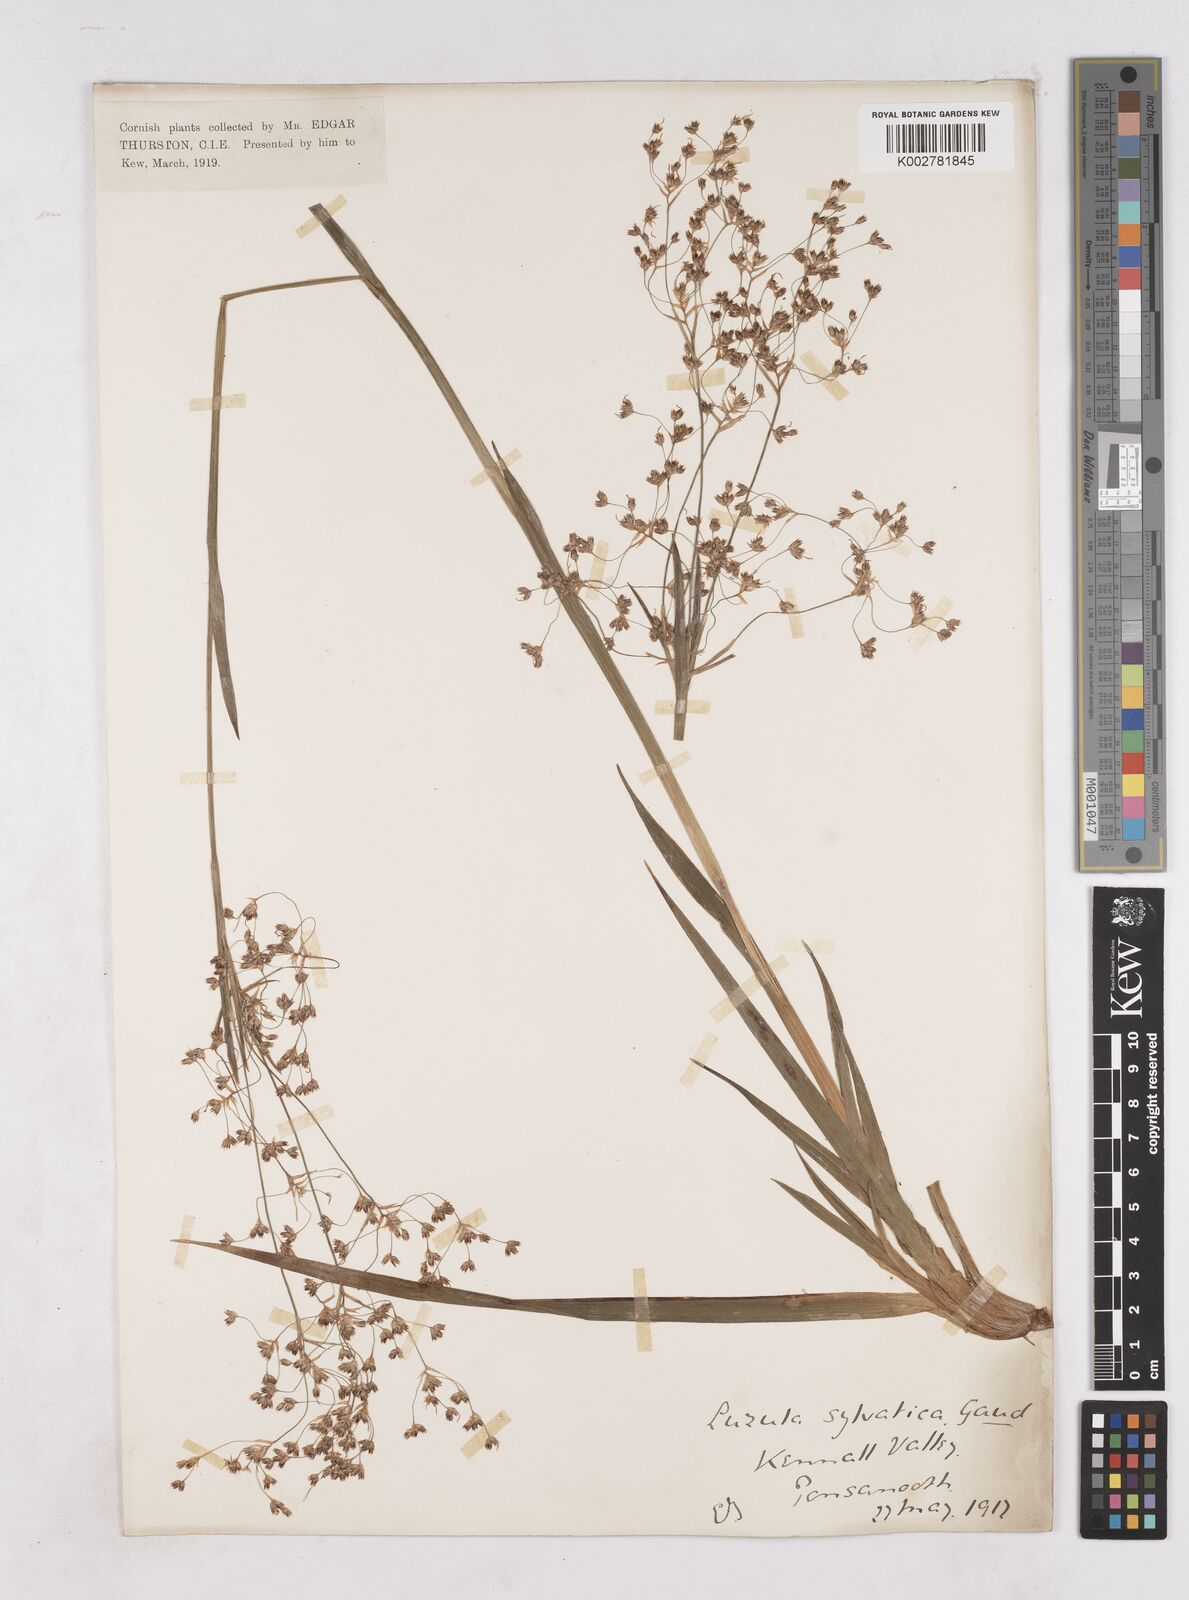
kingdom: Plantae
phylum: Tracheophyta
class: Liliopsida
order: Poales
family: Juncaceae
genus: Luzula
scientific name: Luzula sylvatica
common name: Great wood-rush
